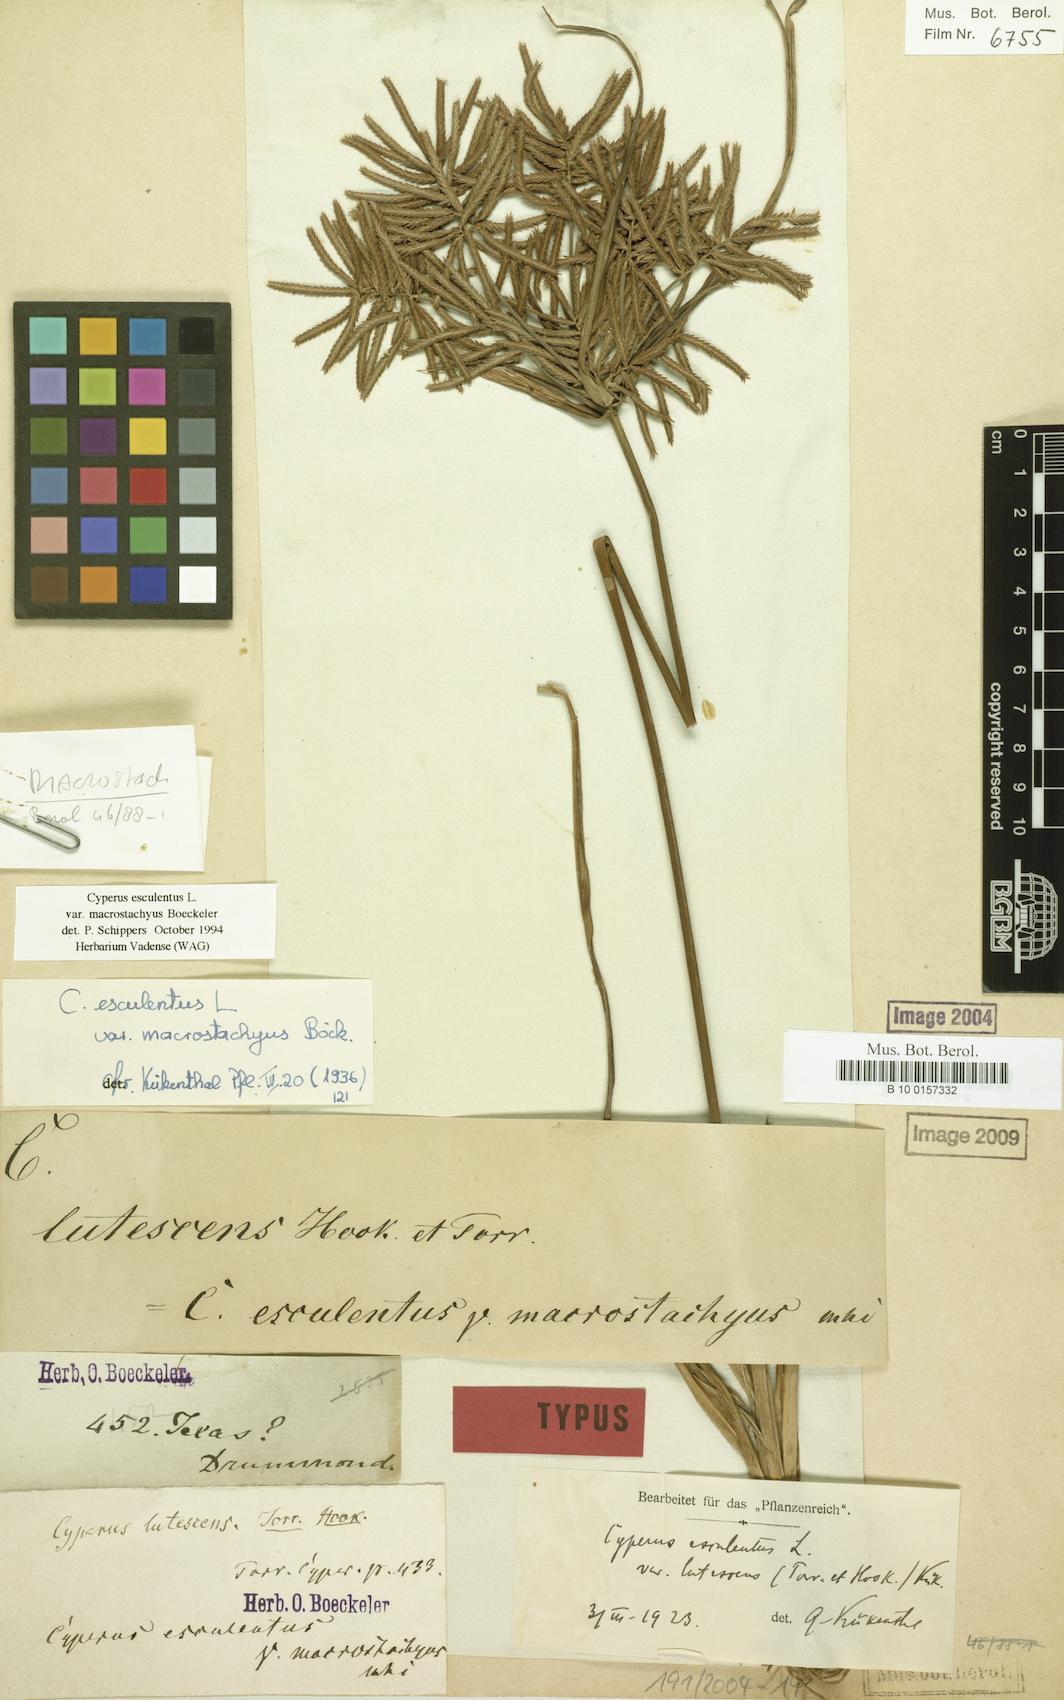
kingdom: Plantae
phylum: Tracheophyta
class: Liliopsida
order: Poales
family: Cyperaceae
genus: Cyperus
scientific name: Cyperus esculentus
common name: Yellow nutsedge
